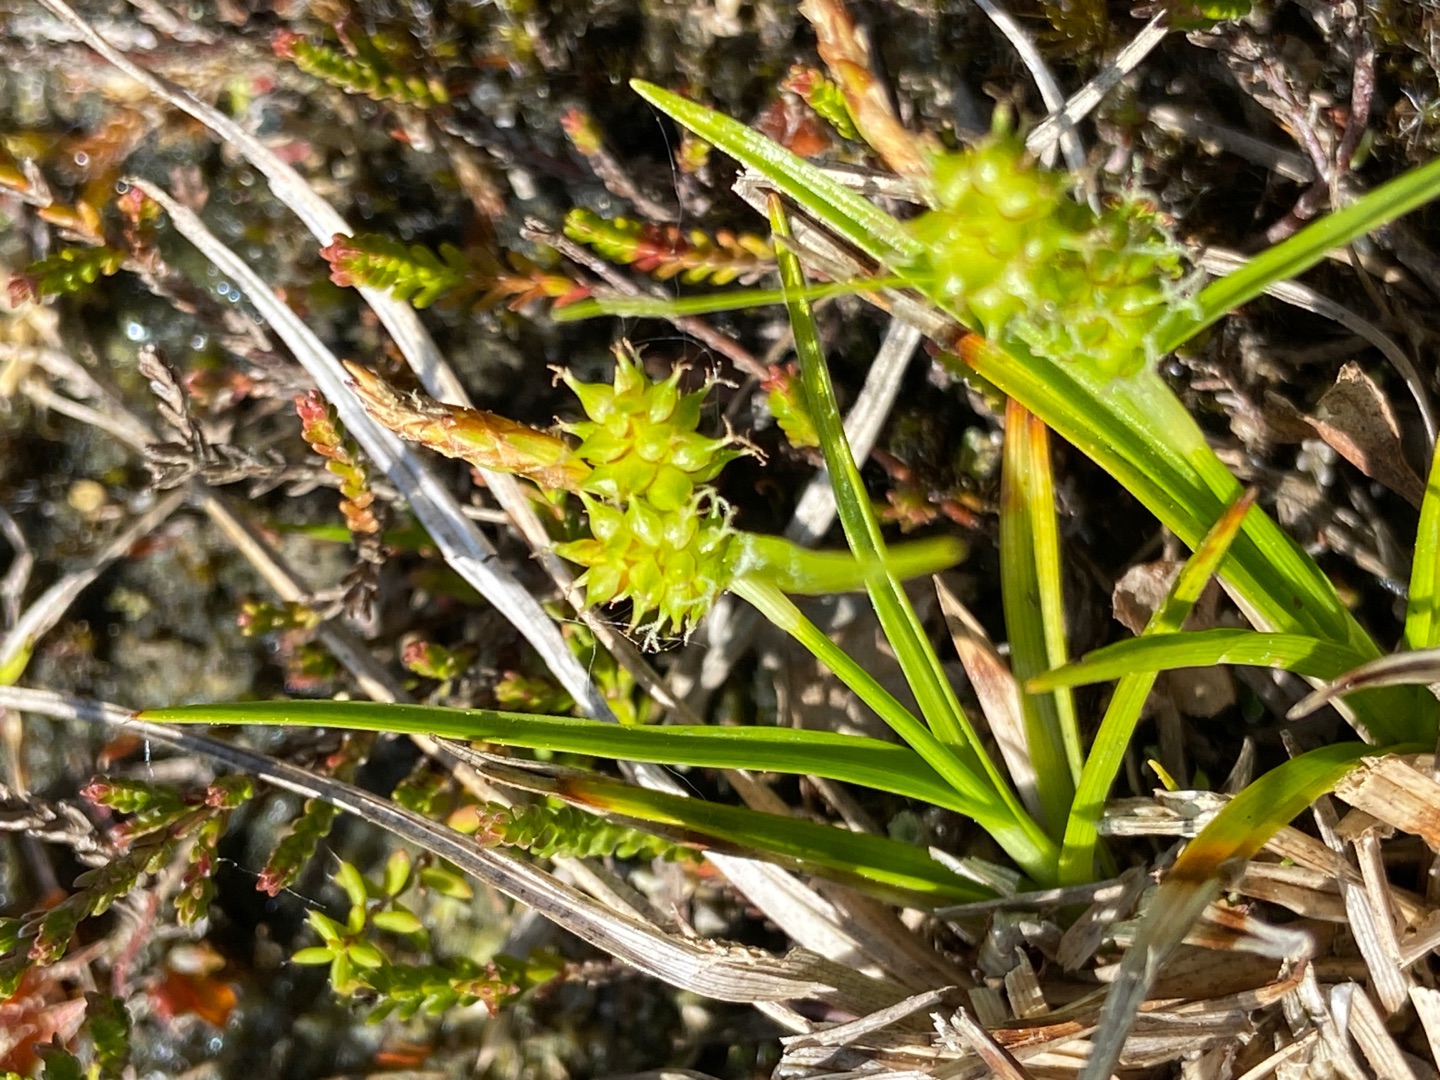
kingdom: Plantae
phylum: Tracheophyta
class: Liliopsida
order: Poales
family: Cyperaceae
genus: Carex
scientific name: Carex oederi
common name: Dværg-star
